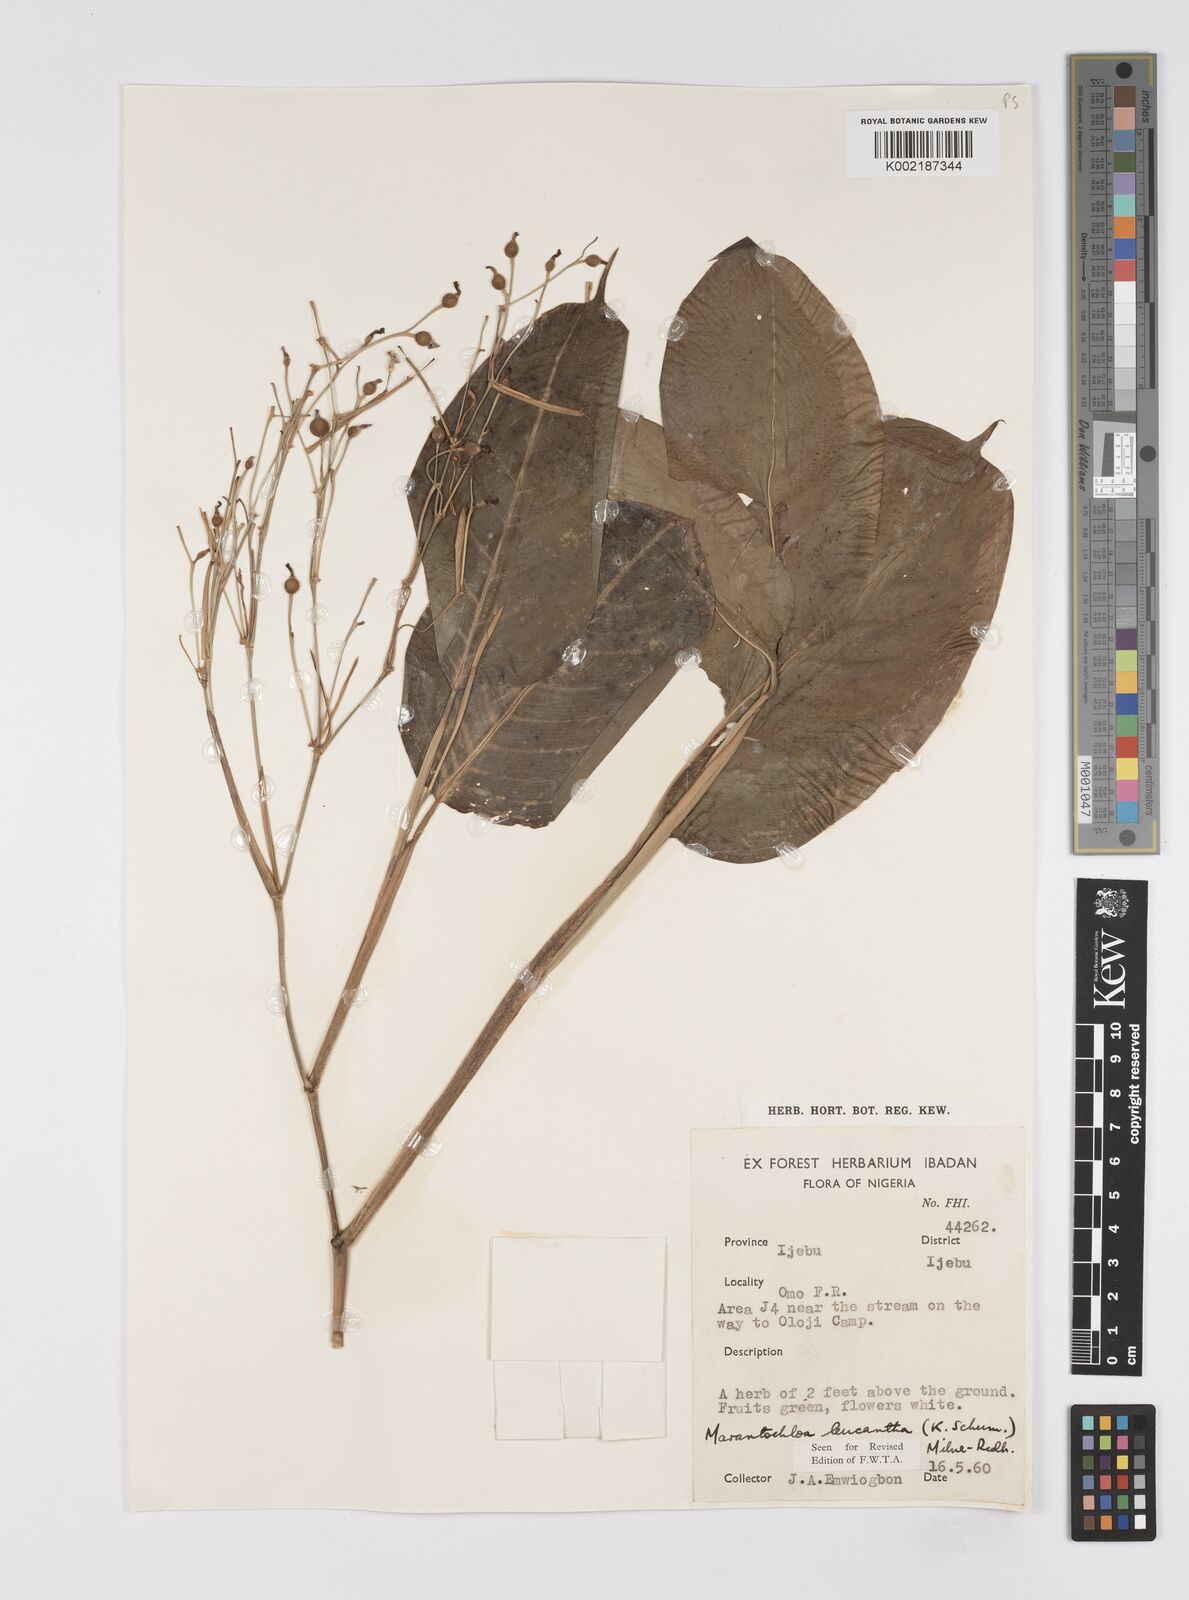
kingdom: Plantae
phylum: Tracheophyta
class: Liliopsida
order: Zingiberales
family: Marantaceae
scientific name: Marantaceae
